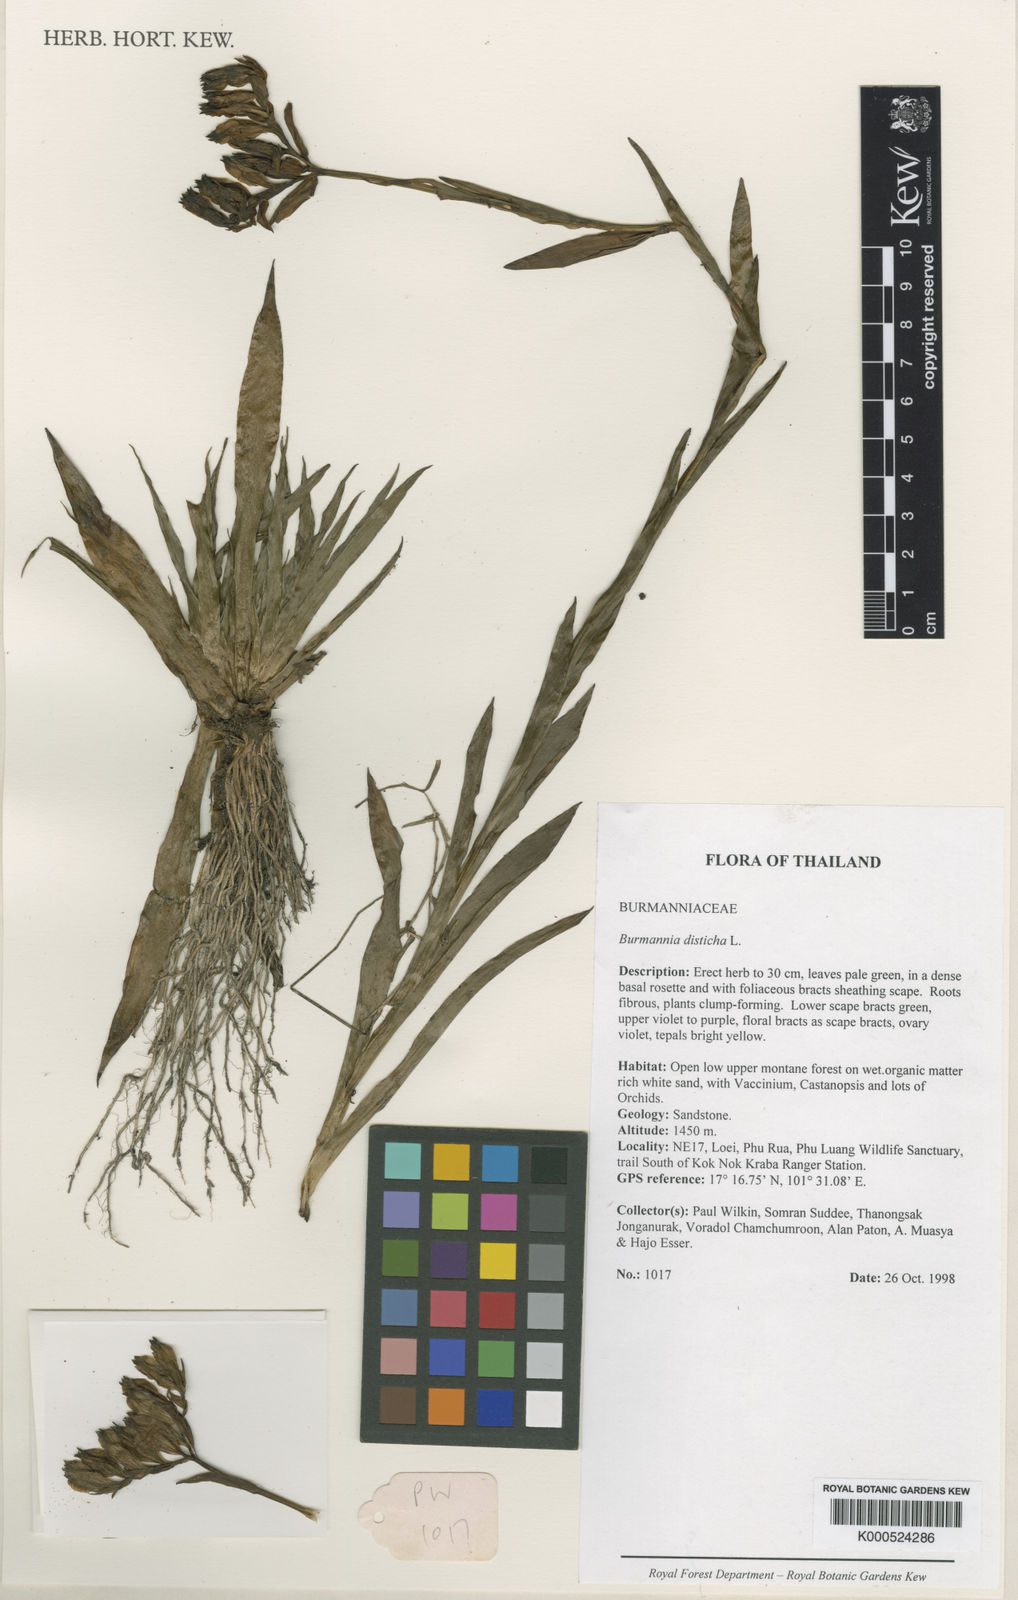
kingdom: Plantae
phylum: Tracheophyta
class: Liliopsida
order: Dioscoreales
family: Burmanniaceae
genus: Burmannia
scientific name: Burmannia disticha
